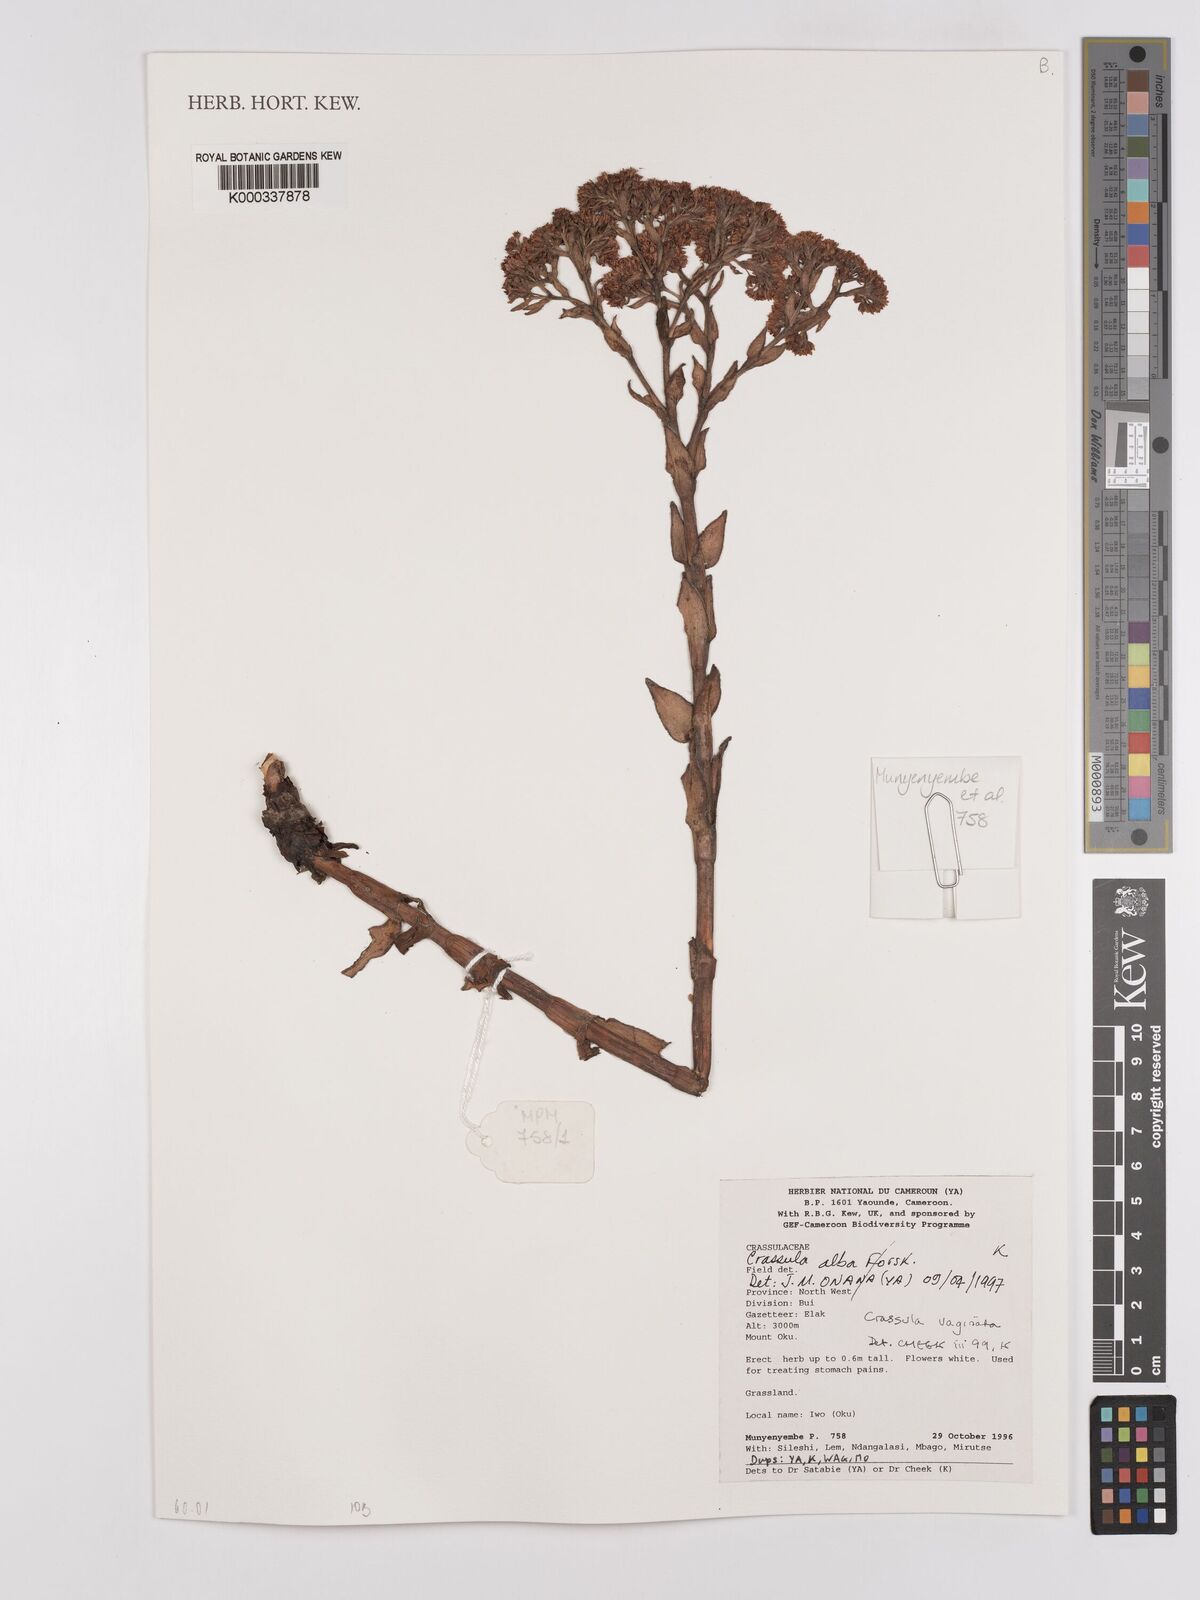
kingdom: Plantae
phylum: Tracheophyta
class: Magnoliopsida
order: Saxifragales
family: Crassulaceae
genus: Crassula
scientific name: Crassula vaginata
